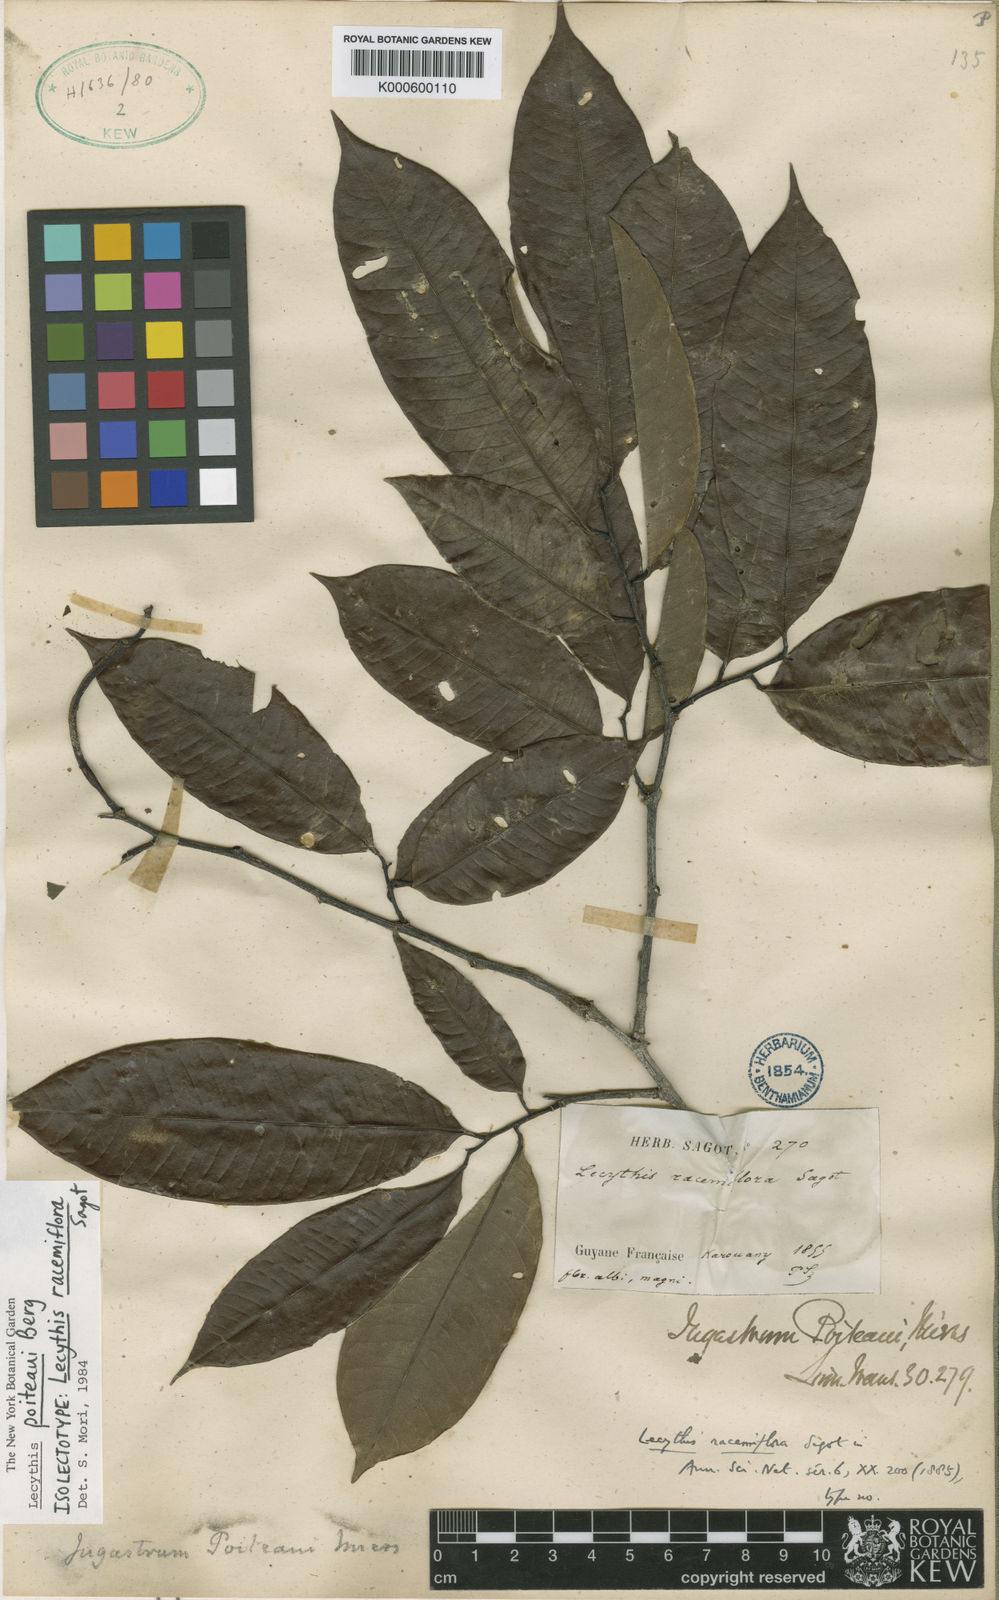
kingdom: Plantae
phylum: Tracheophyta
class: Magnoliopsida
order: Ericales
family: Lecythidaceae
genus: Lecythis
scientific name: Lecythis poiteaui
